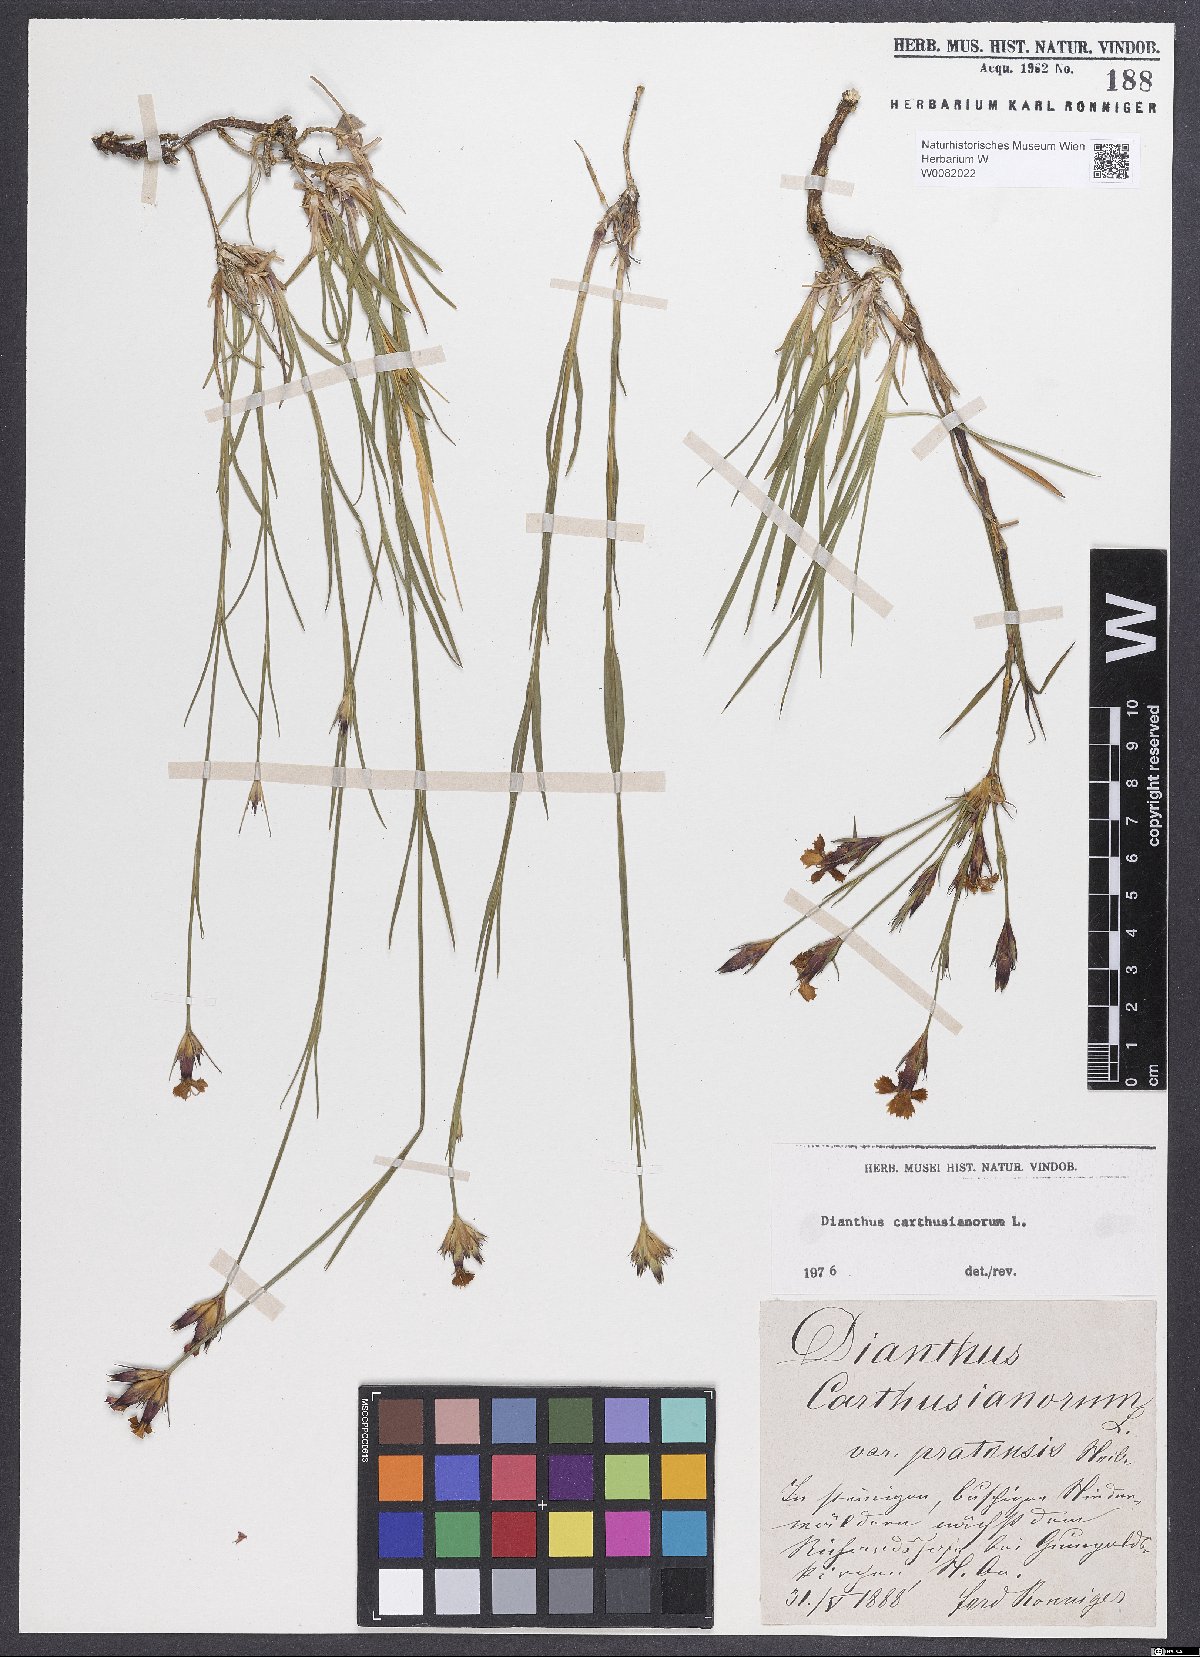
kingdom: Plantae
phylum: Tracheophyta
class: Magnoliopsida
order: Caryophyllales
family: Caryophyllaceae
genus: Dianthus
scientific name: Dianthus carthusianorum
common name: Carthusian pink
